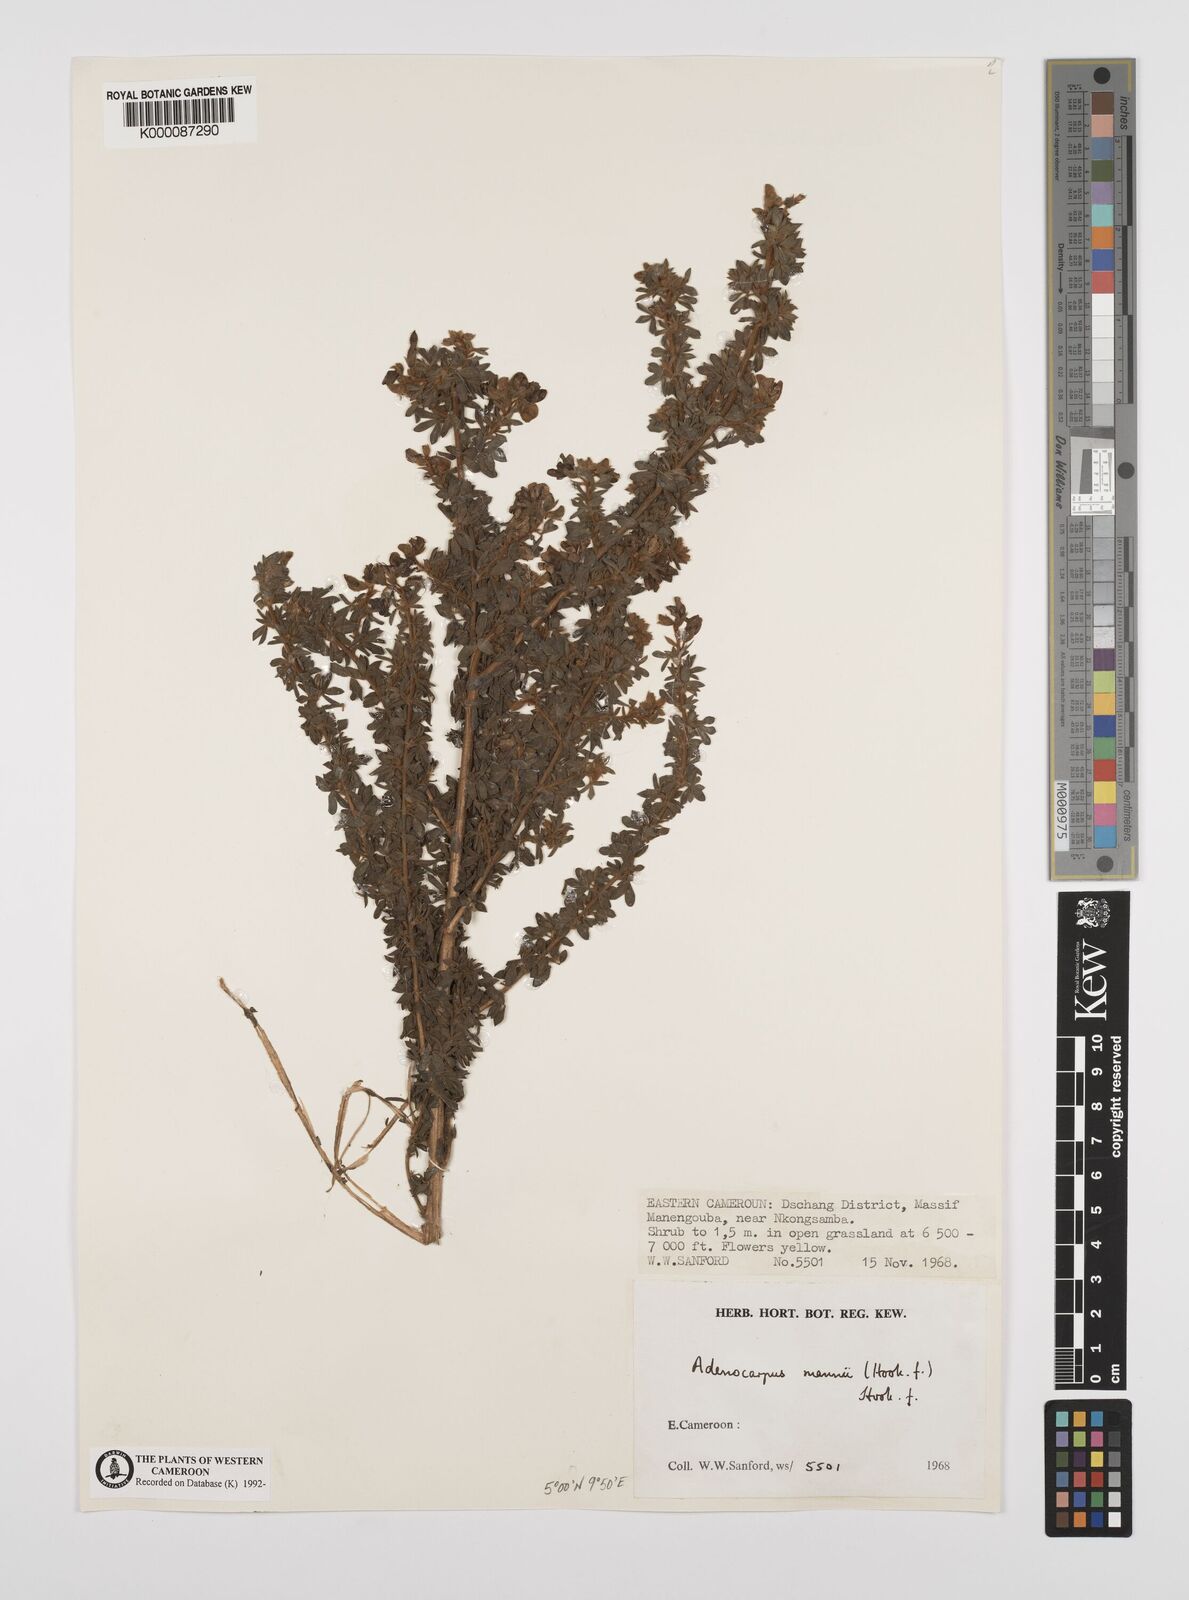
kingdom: Plantae
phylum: Tracheophyta
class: Magnoliopsida
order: Fabales
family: Fabaceae
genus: Adenocarpus
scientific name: Adenocarpus mannii
